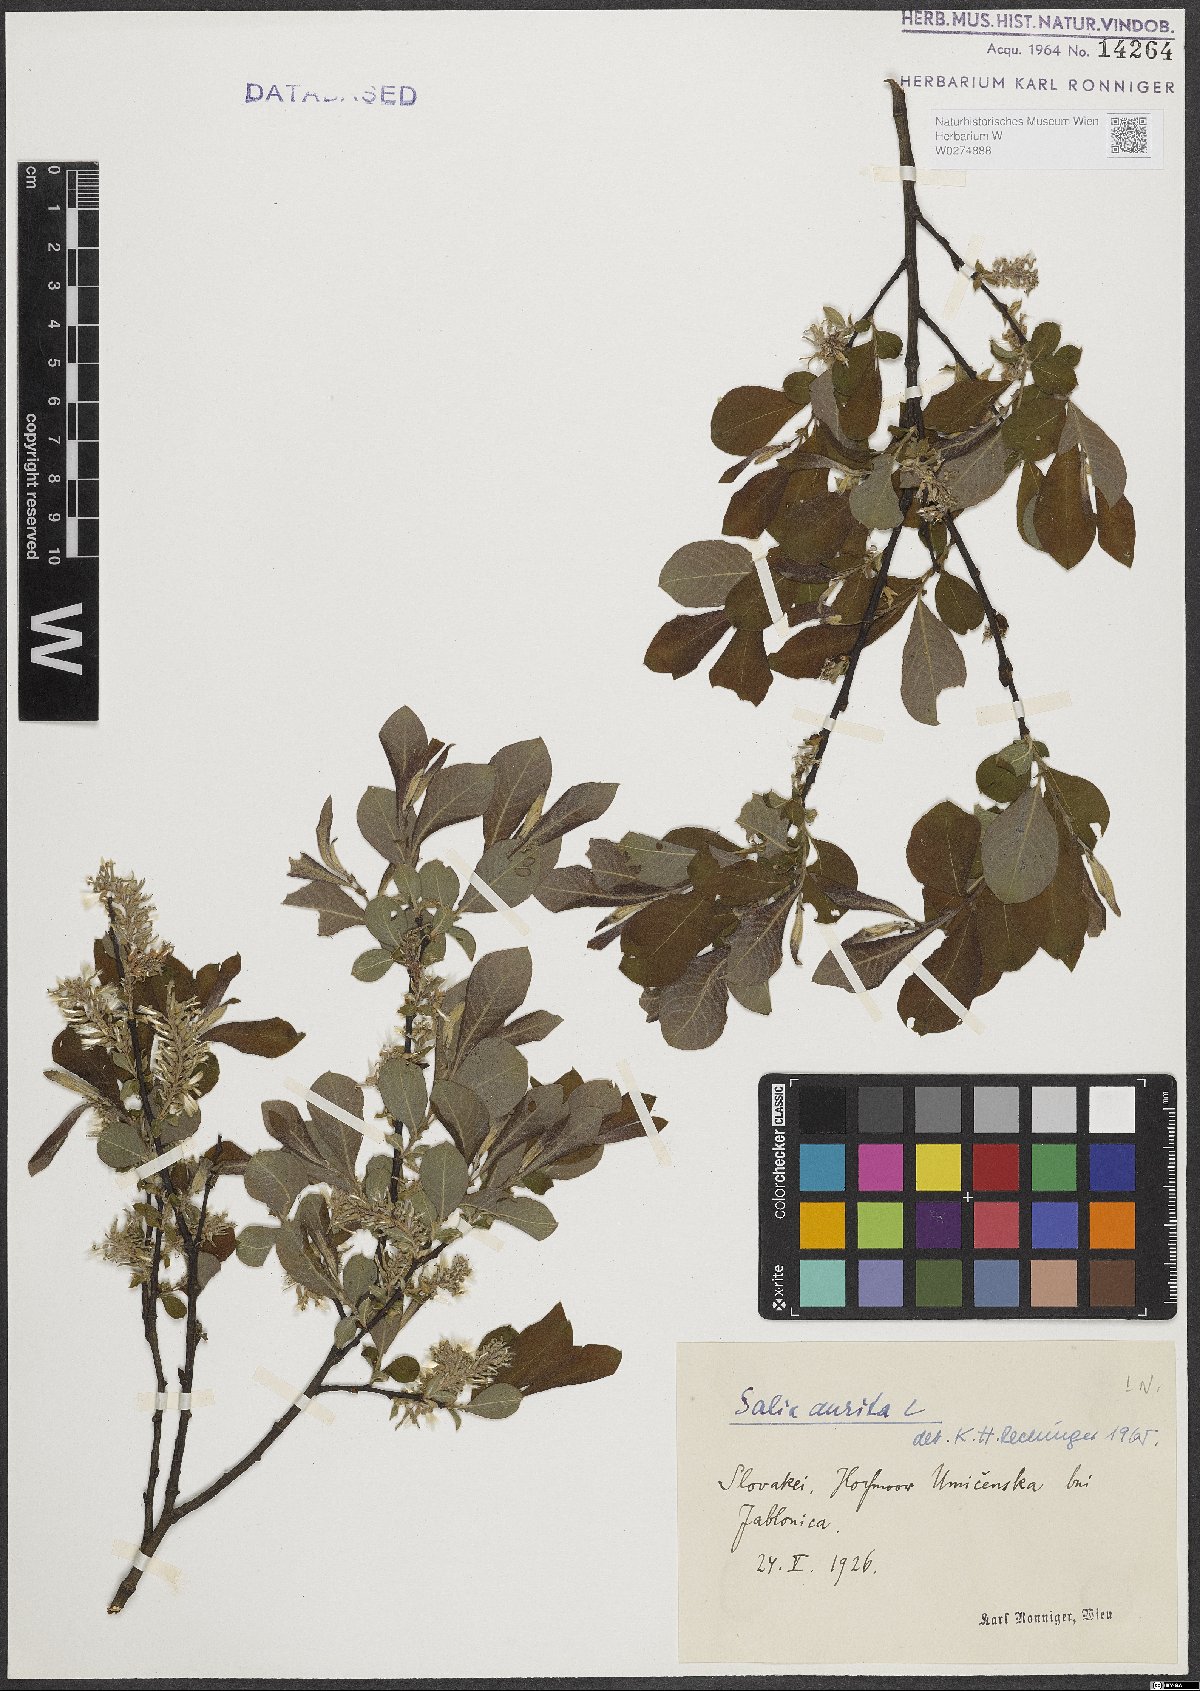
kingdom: Plantae
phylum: Tracheophyta
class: Magnoliopsida
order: Malpighiales
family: Salicaceae
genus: Salix
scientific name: Salix aurita
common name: Eared willow
